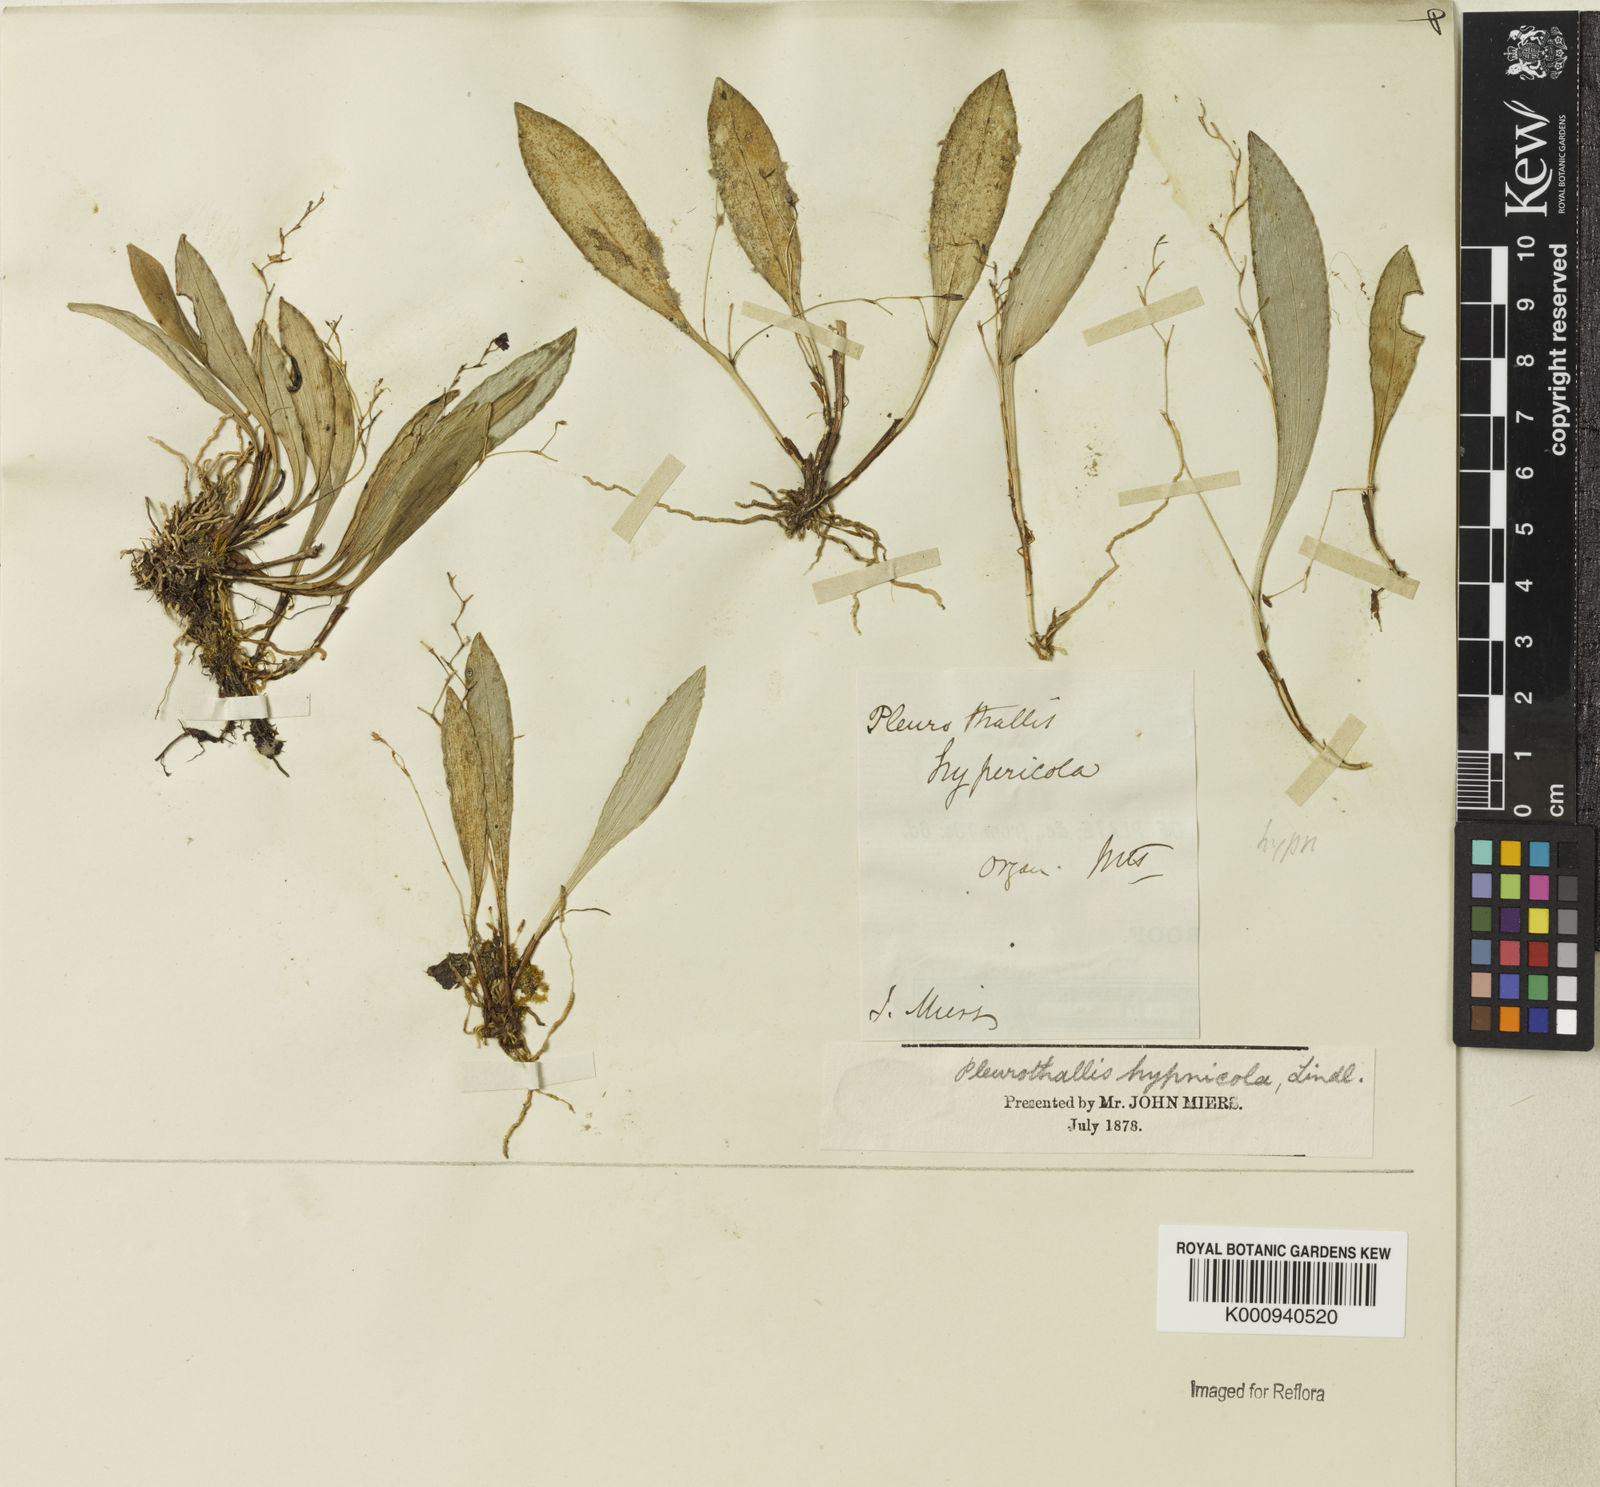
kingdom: Plantae
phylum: Tracheophyta
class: Liliopsida
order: Asparagales
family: Orchidaceae
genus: Pabstiella
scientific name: Pabstiella fusca
